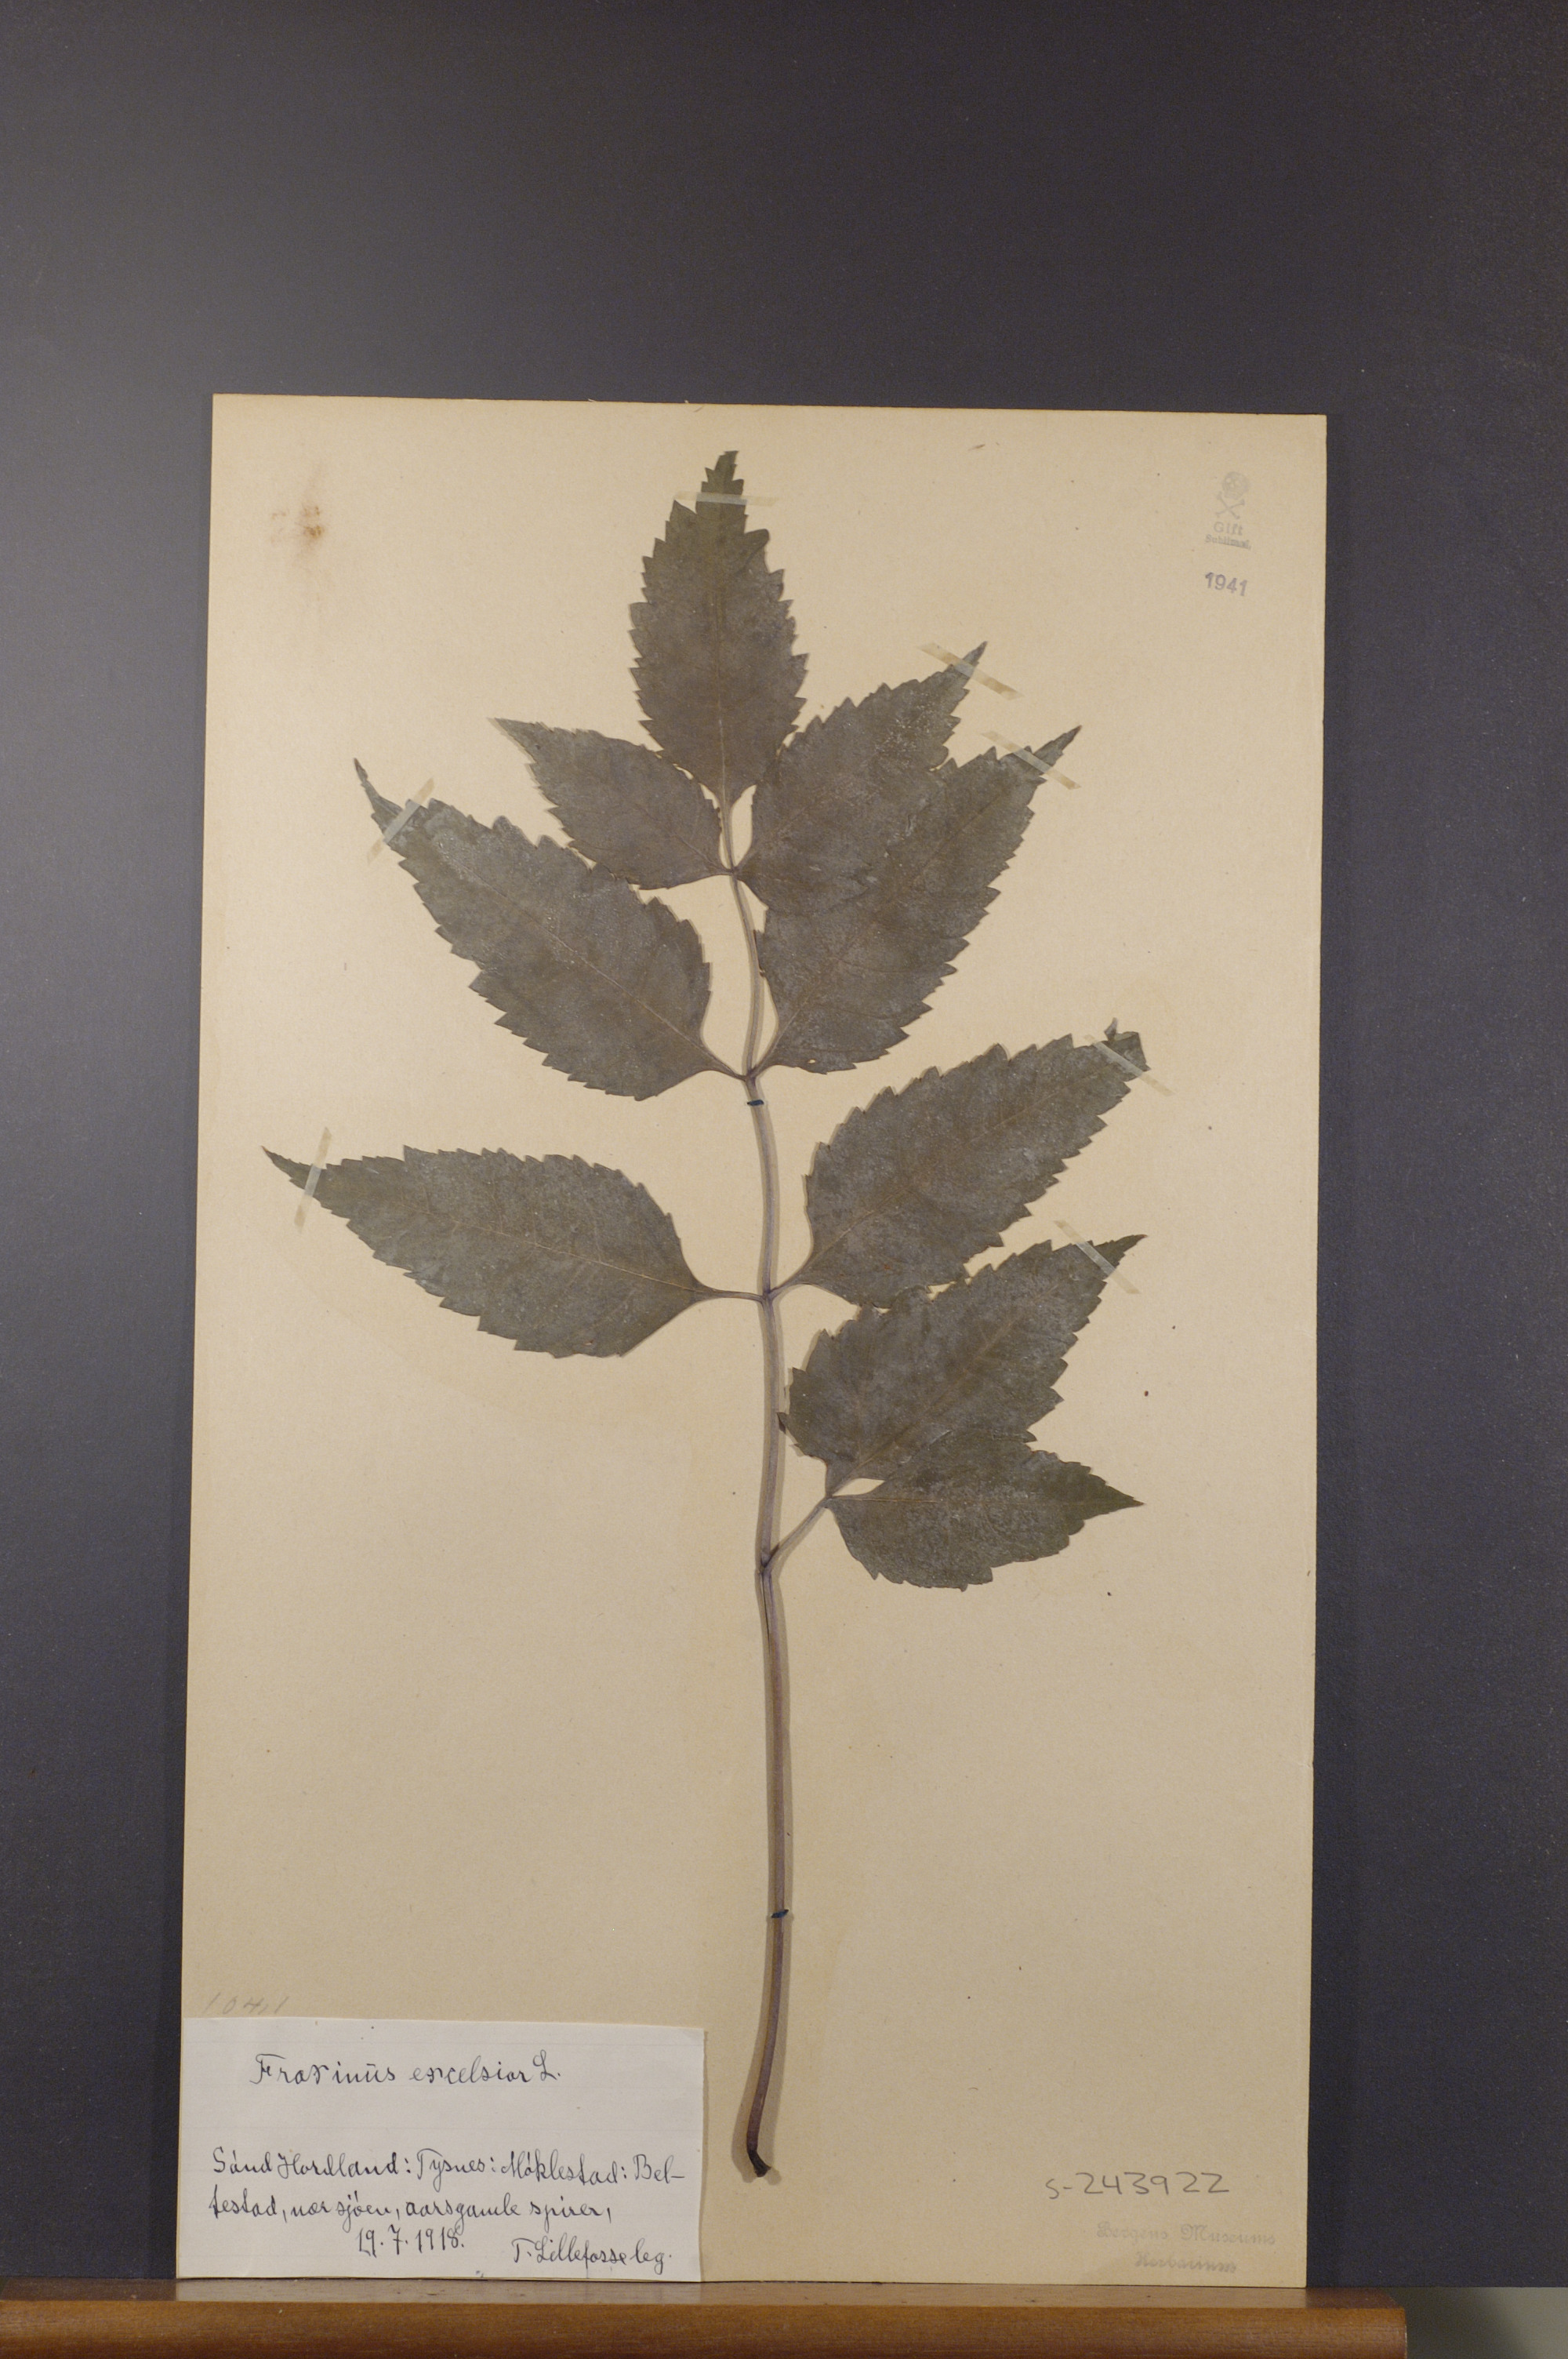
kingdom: Plantae
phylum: Tracheophyta
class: Magnoliopsida
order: Lamiales
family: Oleaceae
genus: Fraxinus
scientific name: Fraxinus excelsior
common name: European ash
